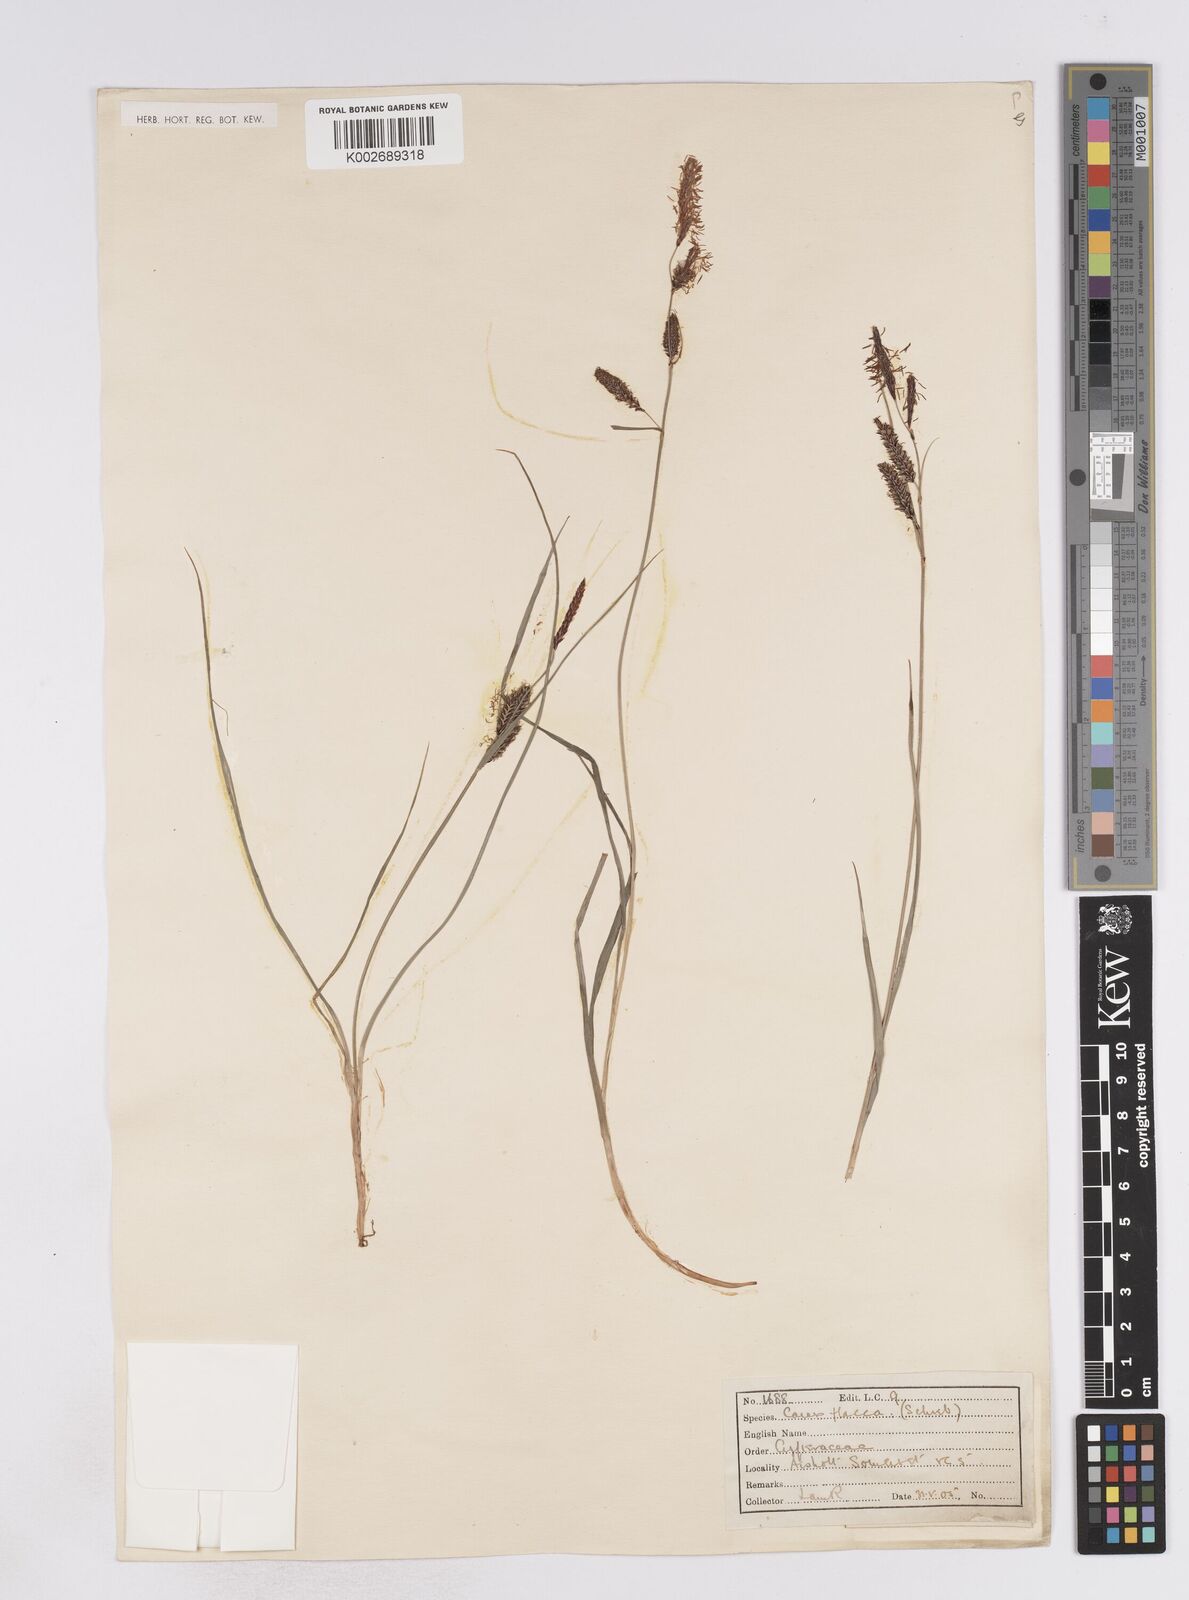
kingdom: Plantae
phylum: Tracheophyta
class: Liliopsida
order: Poales
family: Cyperaceae
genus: Carex
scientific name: Carex flacca
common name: Glaucous sedge
